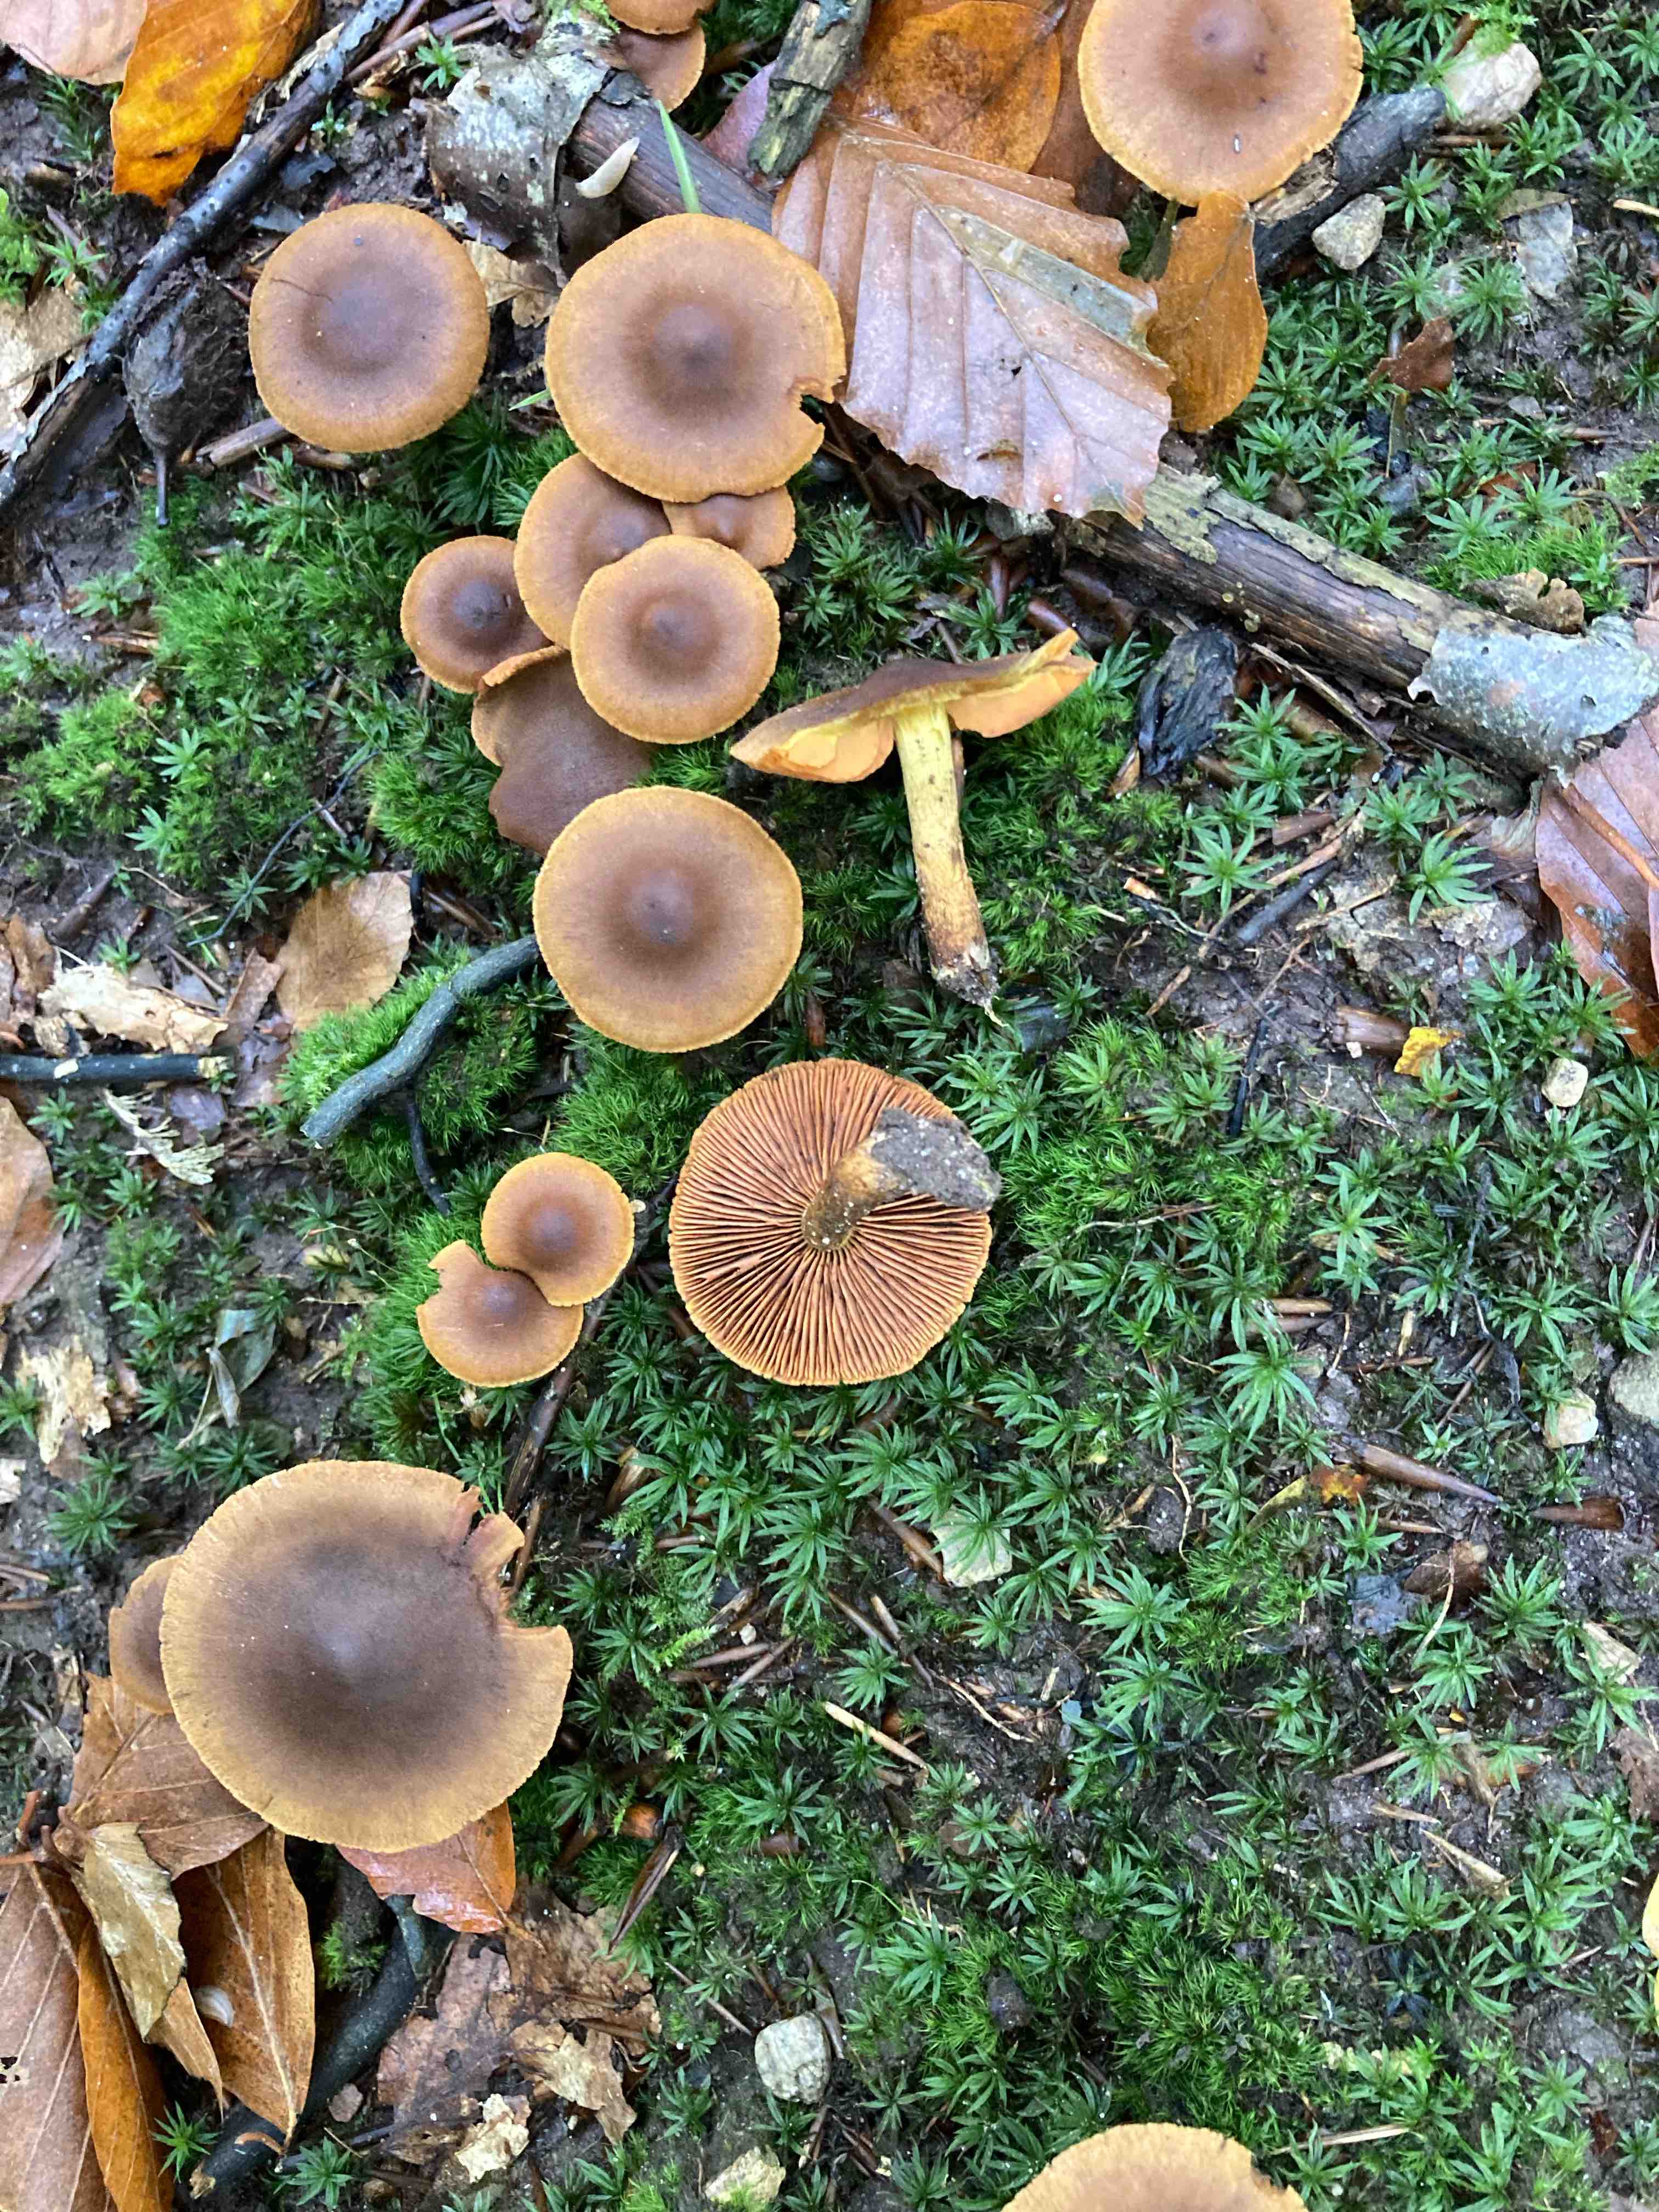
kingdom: Fungi
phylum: Basidiomycota
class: Agaricomycetes
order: Agaricales
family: Cortinariaceae
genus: Cortinarius
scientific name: Cortinarius
